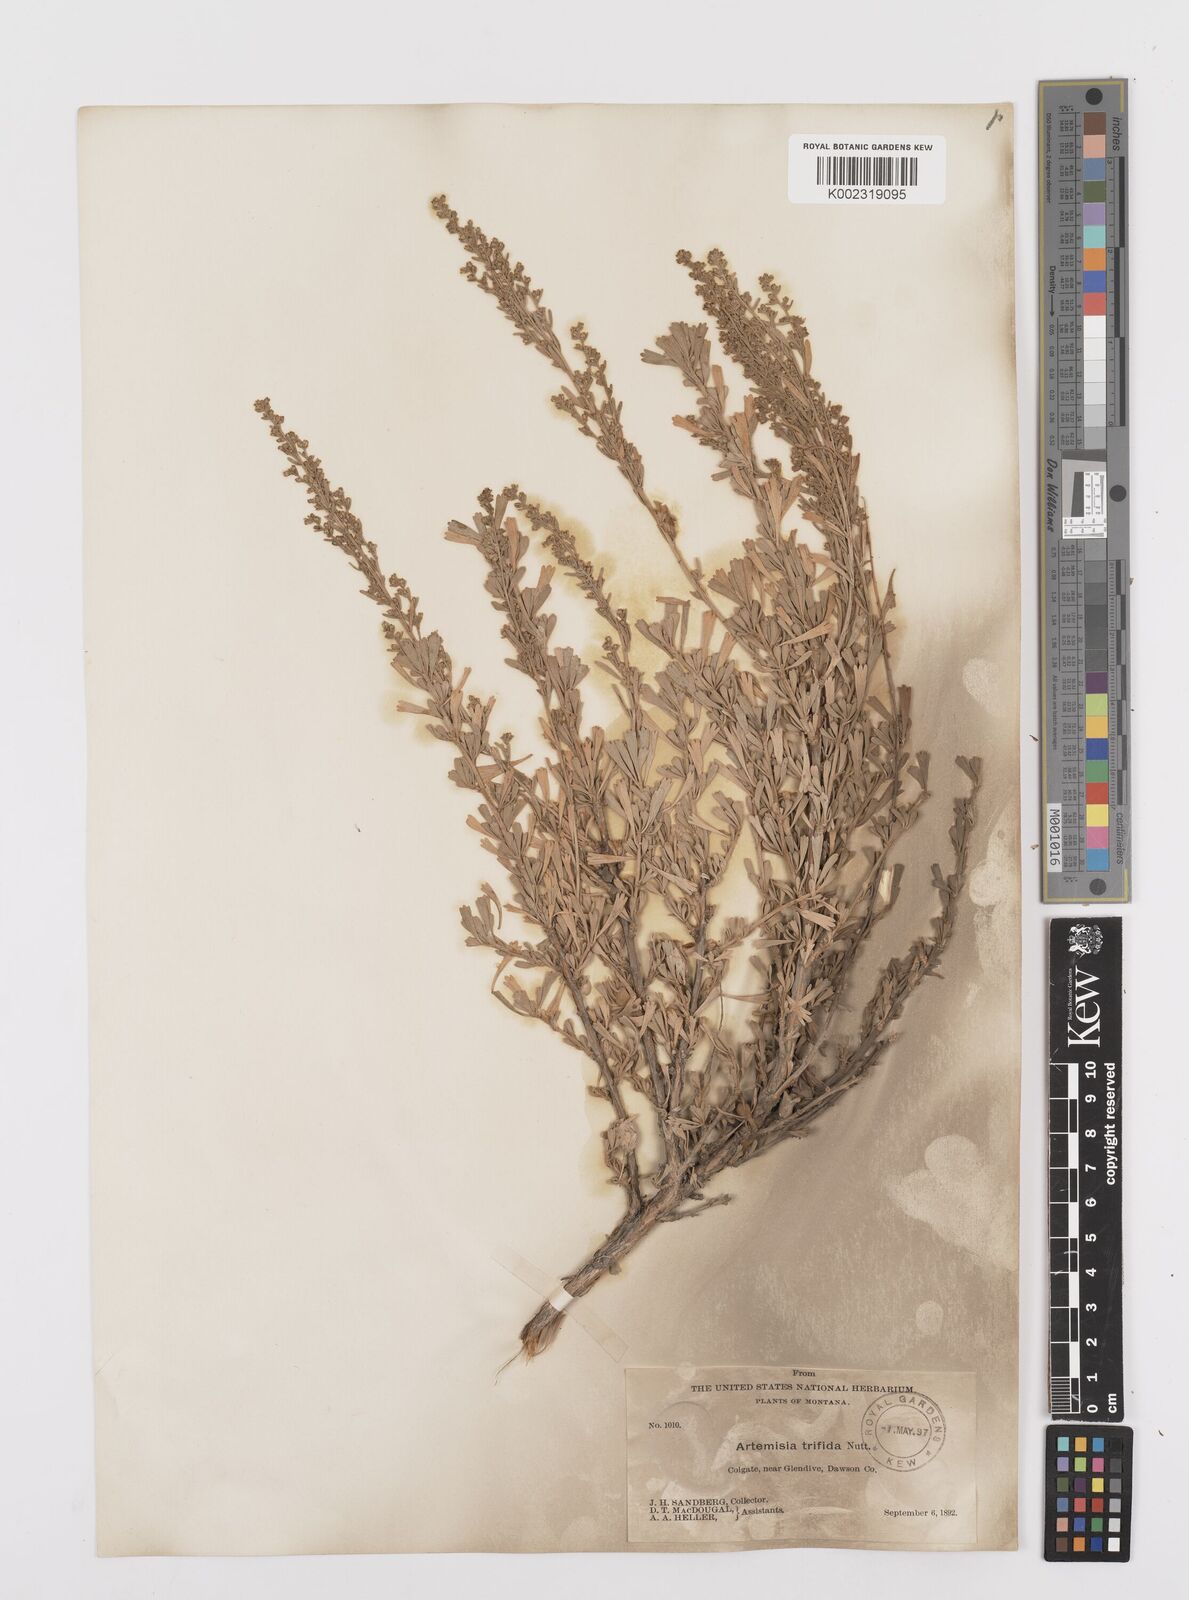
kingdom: Plantae
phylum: Tracheophyta
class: Magnoliopsida
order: Asterales
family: Asteraceae
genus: Artemisia
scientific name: Artemisia tripartita
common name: Three-tip sagebrush
